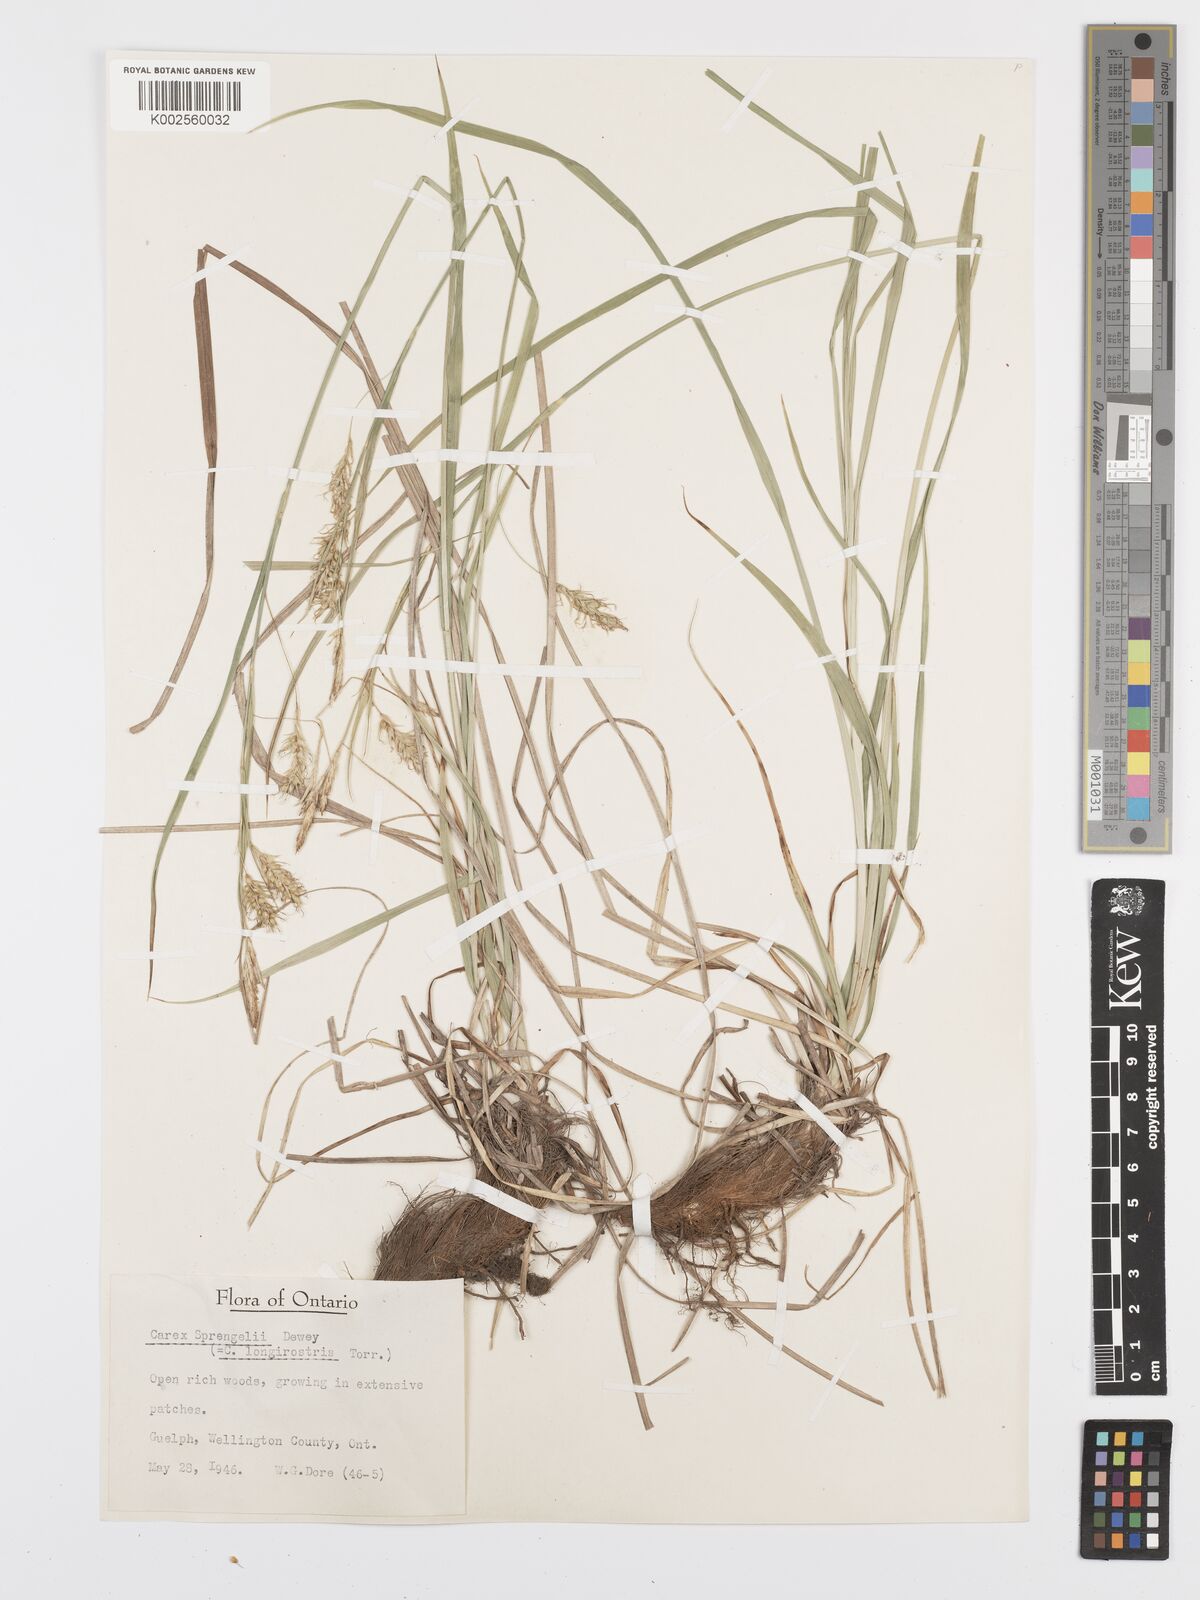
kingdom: Plantae
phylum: Tracheophyta
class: Liliopsida
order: Poales
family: Cyperaceae
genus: Carex
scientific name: Carex sprengelii
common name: Long-beaked sedge
